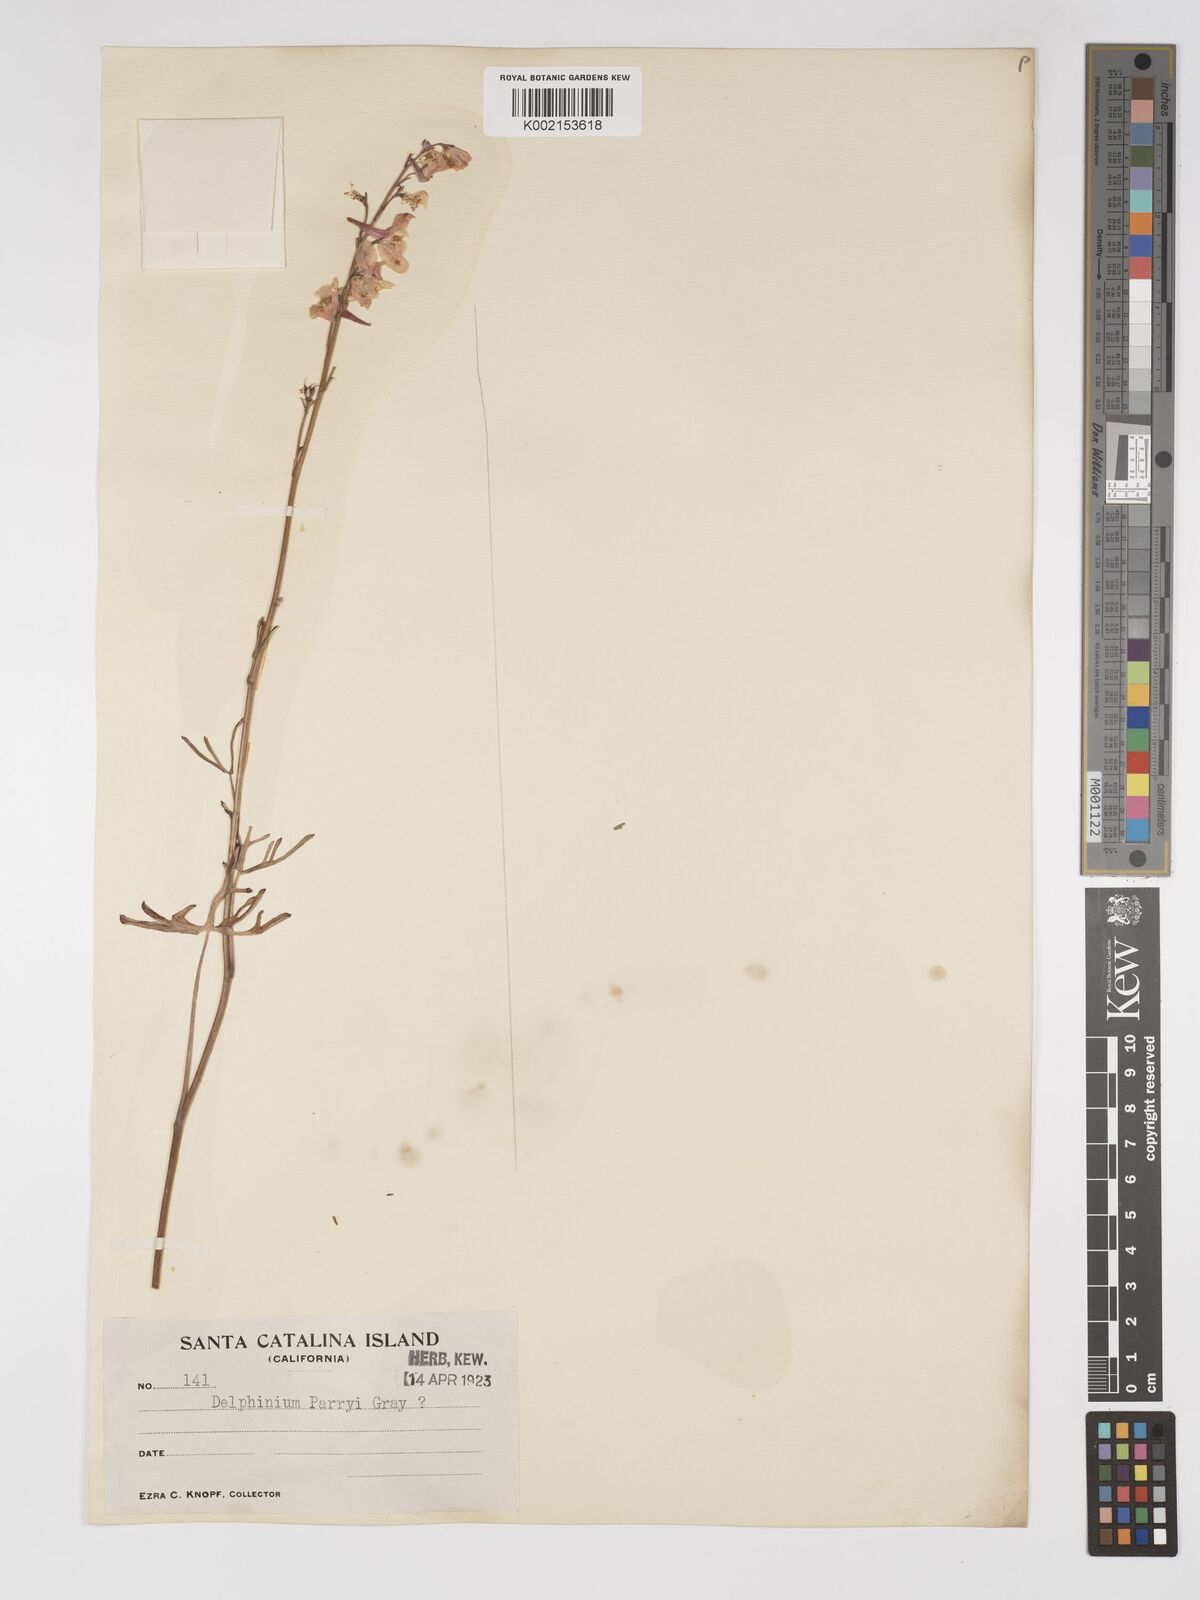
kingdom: Plantae
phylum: Tracheophyta
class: Magnoliopsida
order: Ranunculales
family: Ranunculaceae
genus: Delphinium
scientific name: Delphinium parryi
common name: Parry's larkspur
